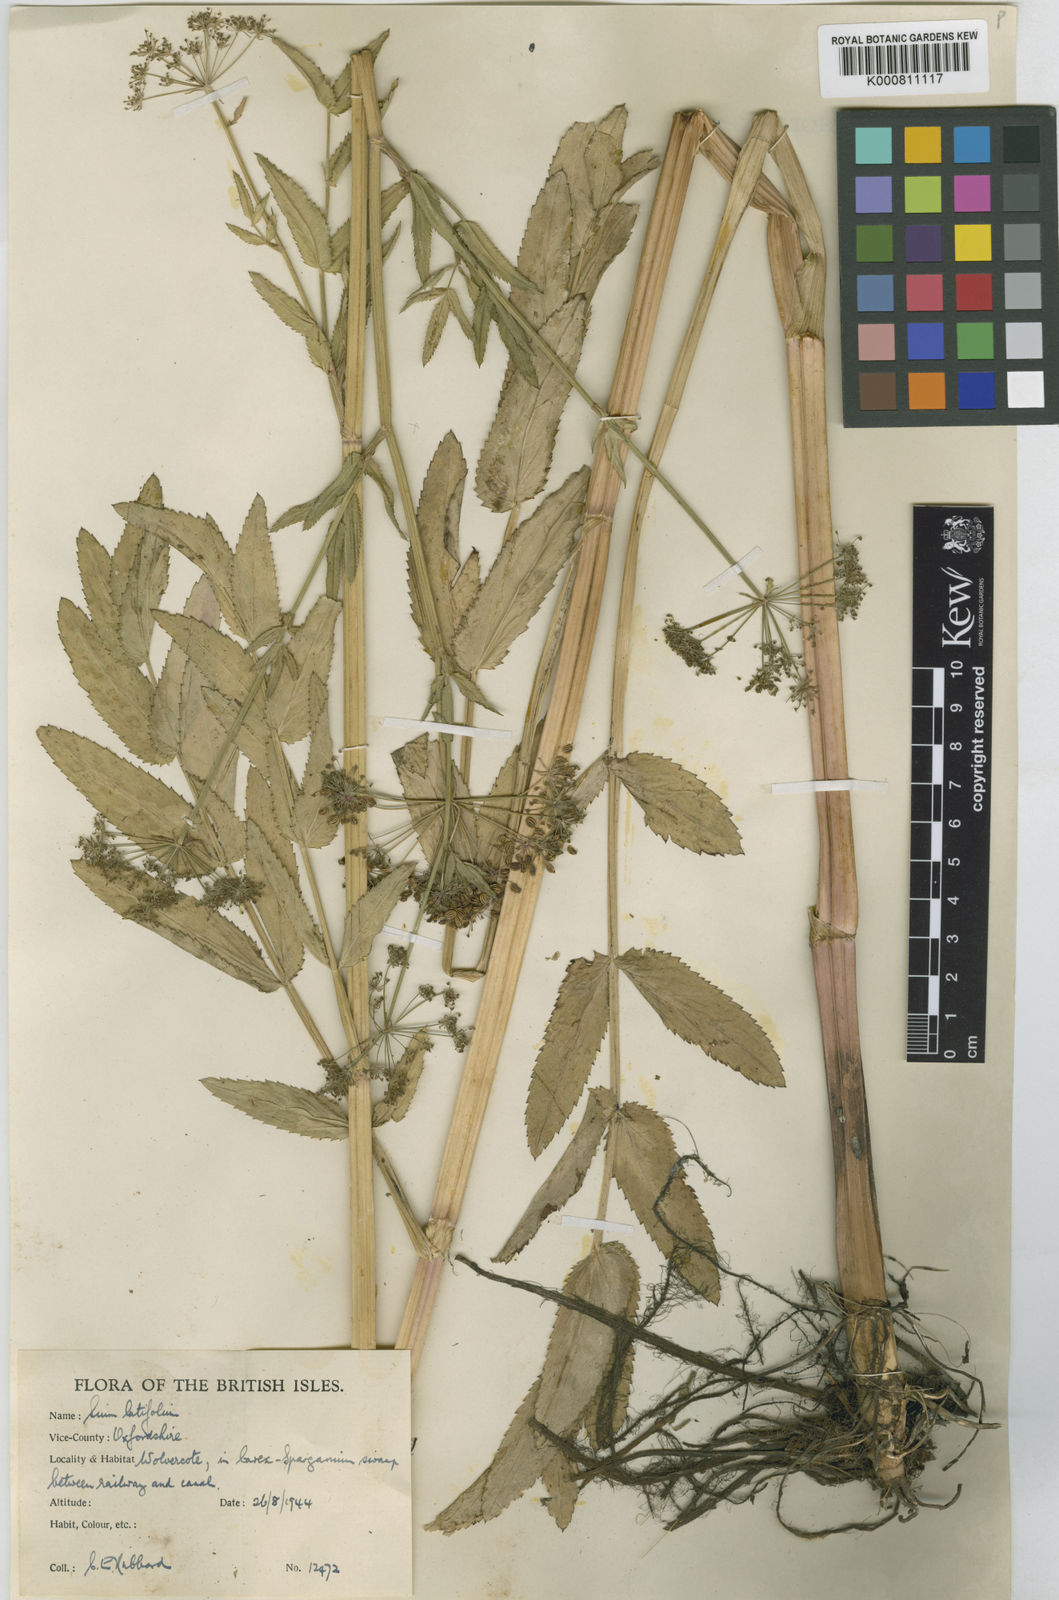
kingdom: Plantae
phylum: Tracheophyta
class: Magnoliopsida
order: Apiales
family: Apiaceae
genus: Sium
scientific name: Sium latifolium
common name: Greater water-parsnip
